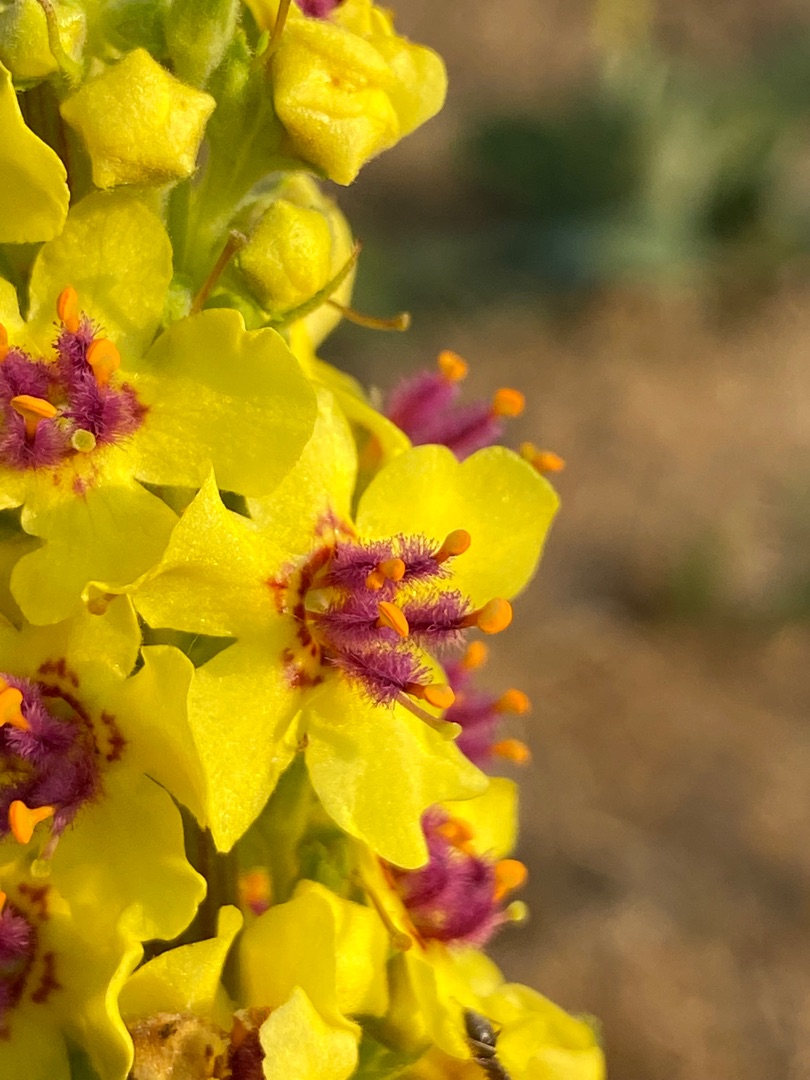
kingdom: Plantae
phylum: Tracheophyta
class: Magnoliopsida
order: Lamiales
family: Scrophulariaceae
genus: Verbascum
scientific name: Verbascum nigrum
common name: Mørk kongelys
